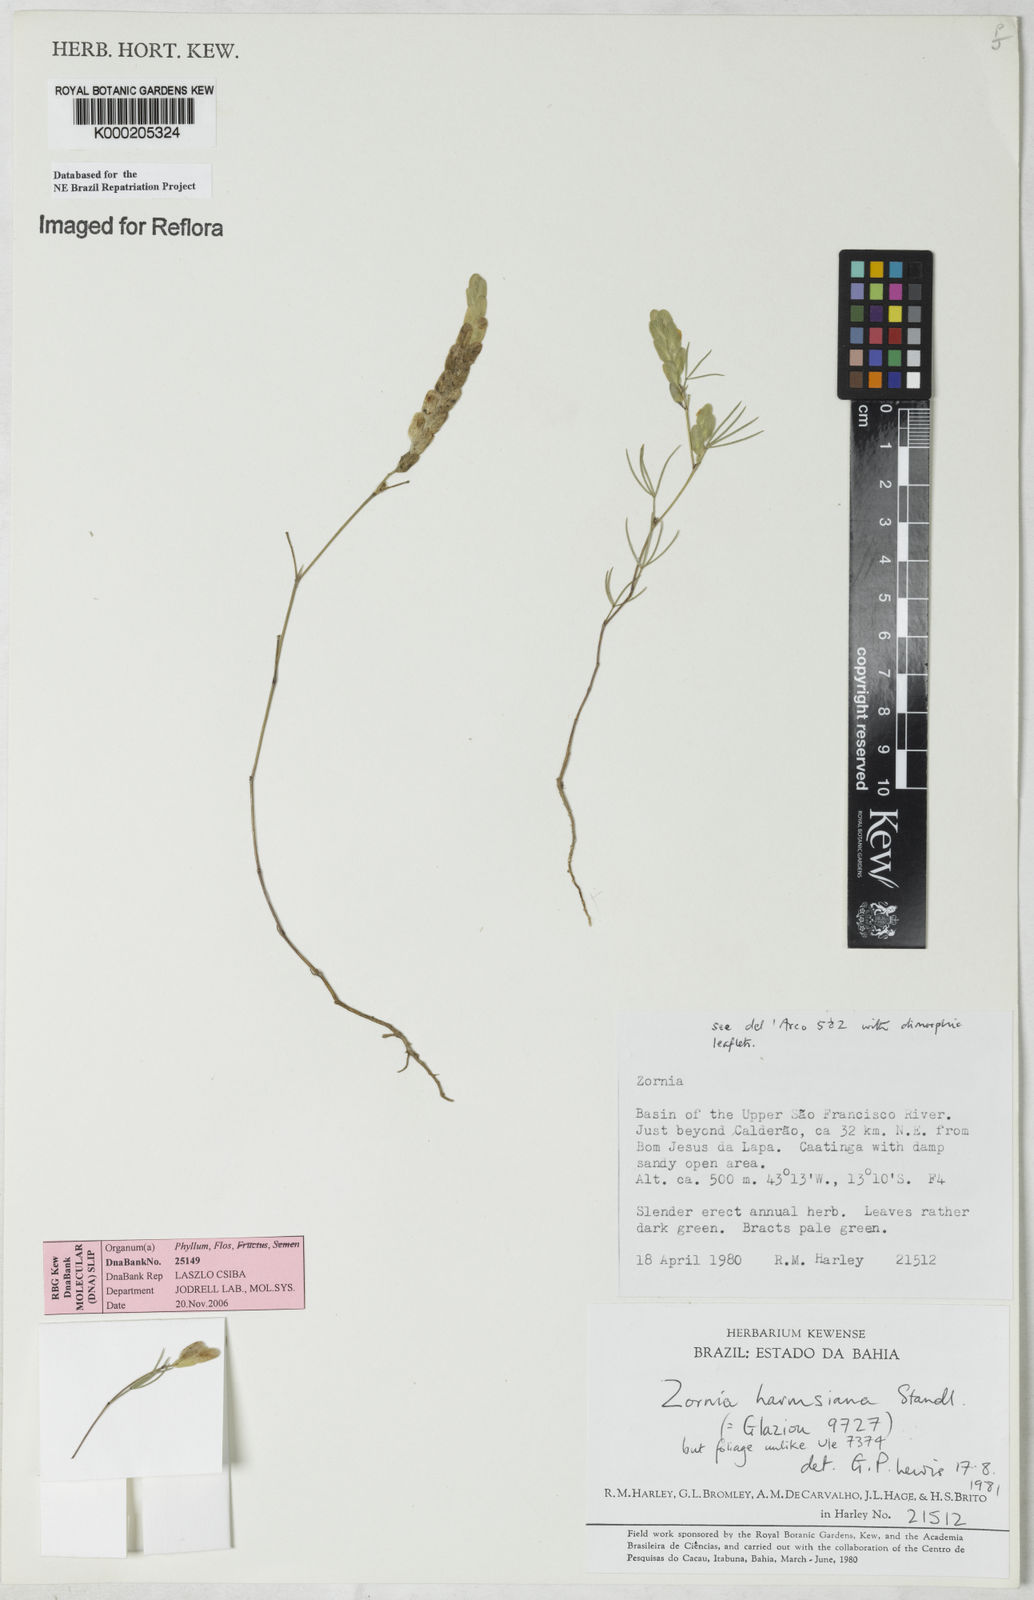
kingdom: Plantae
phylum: Tracheophyta
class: Magnoliopsida
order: Fabales
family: Fabaceae
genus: Zornia
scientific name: Zornia harmsiana
